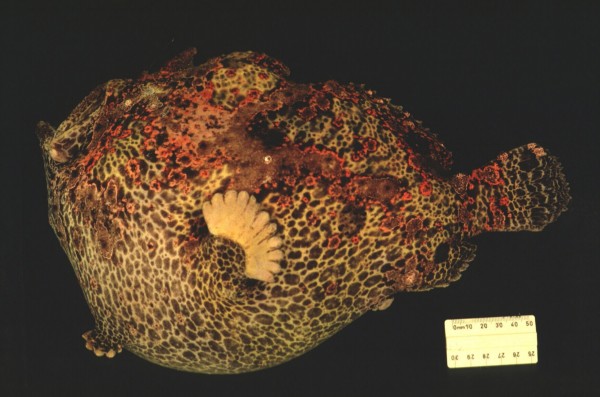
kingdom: Animalia
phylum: Chordata
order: Lophiiformes
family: Antennariidae
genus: Antennarius
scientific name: Antennarius commerson
